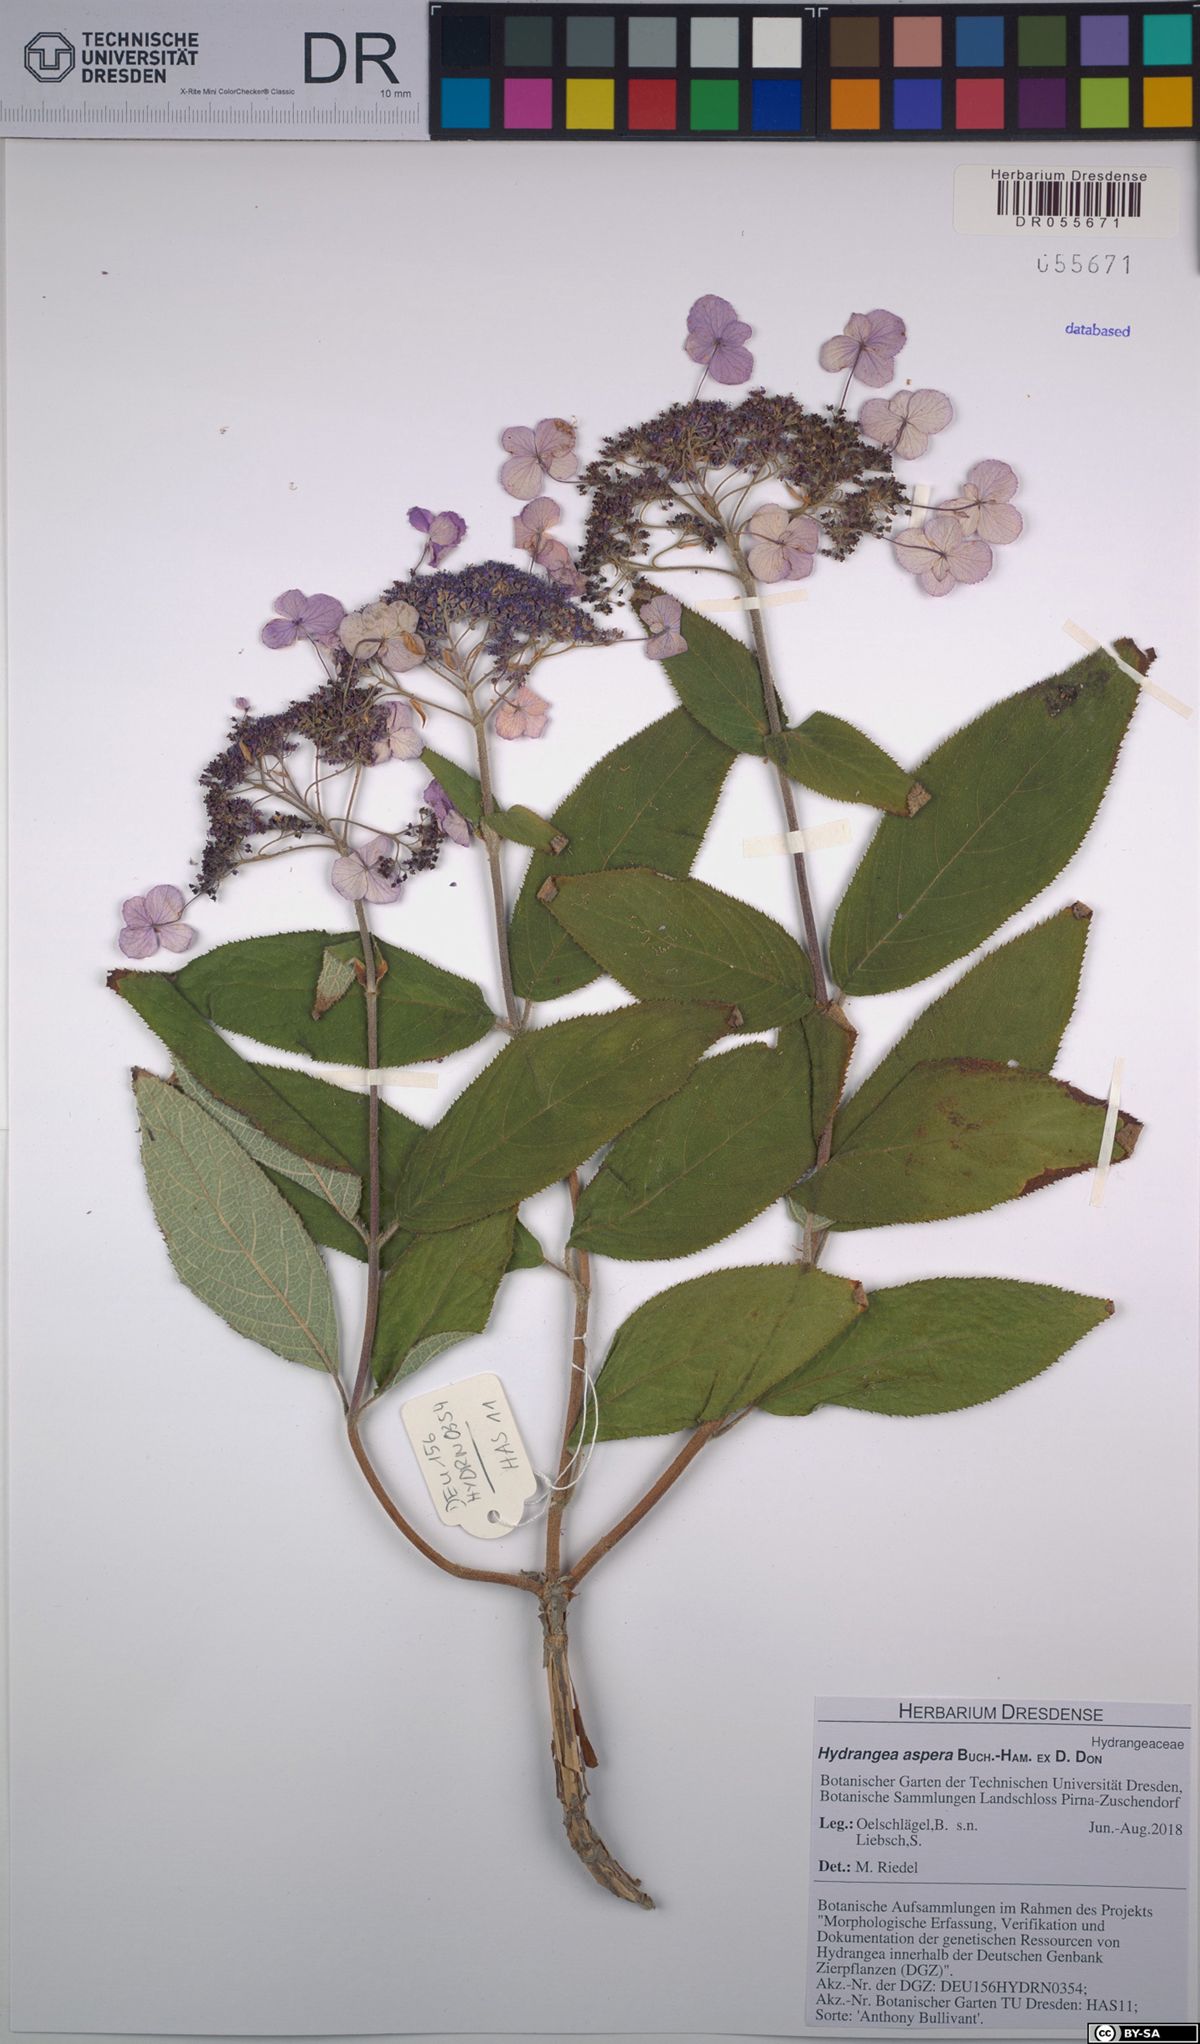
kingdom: Plantae
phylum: Tracheophyta
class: Magnoliopsida
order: Cornales
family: Hydrangeaceae
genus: Hydrangea
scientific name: Hydrangea aspera
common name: Rough-leaf hydrangea
